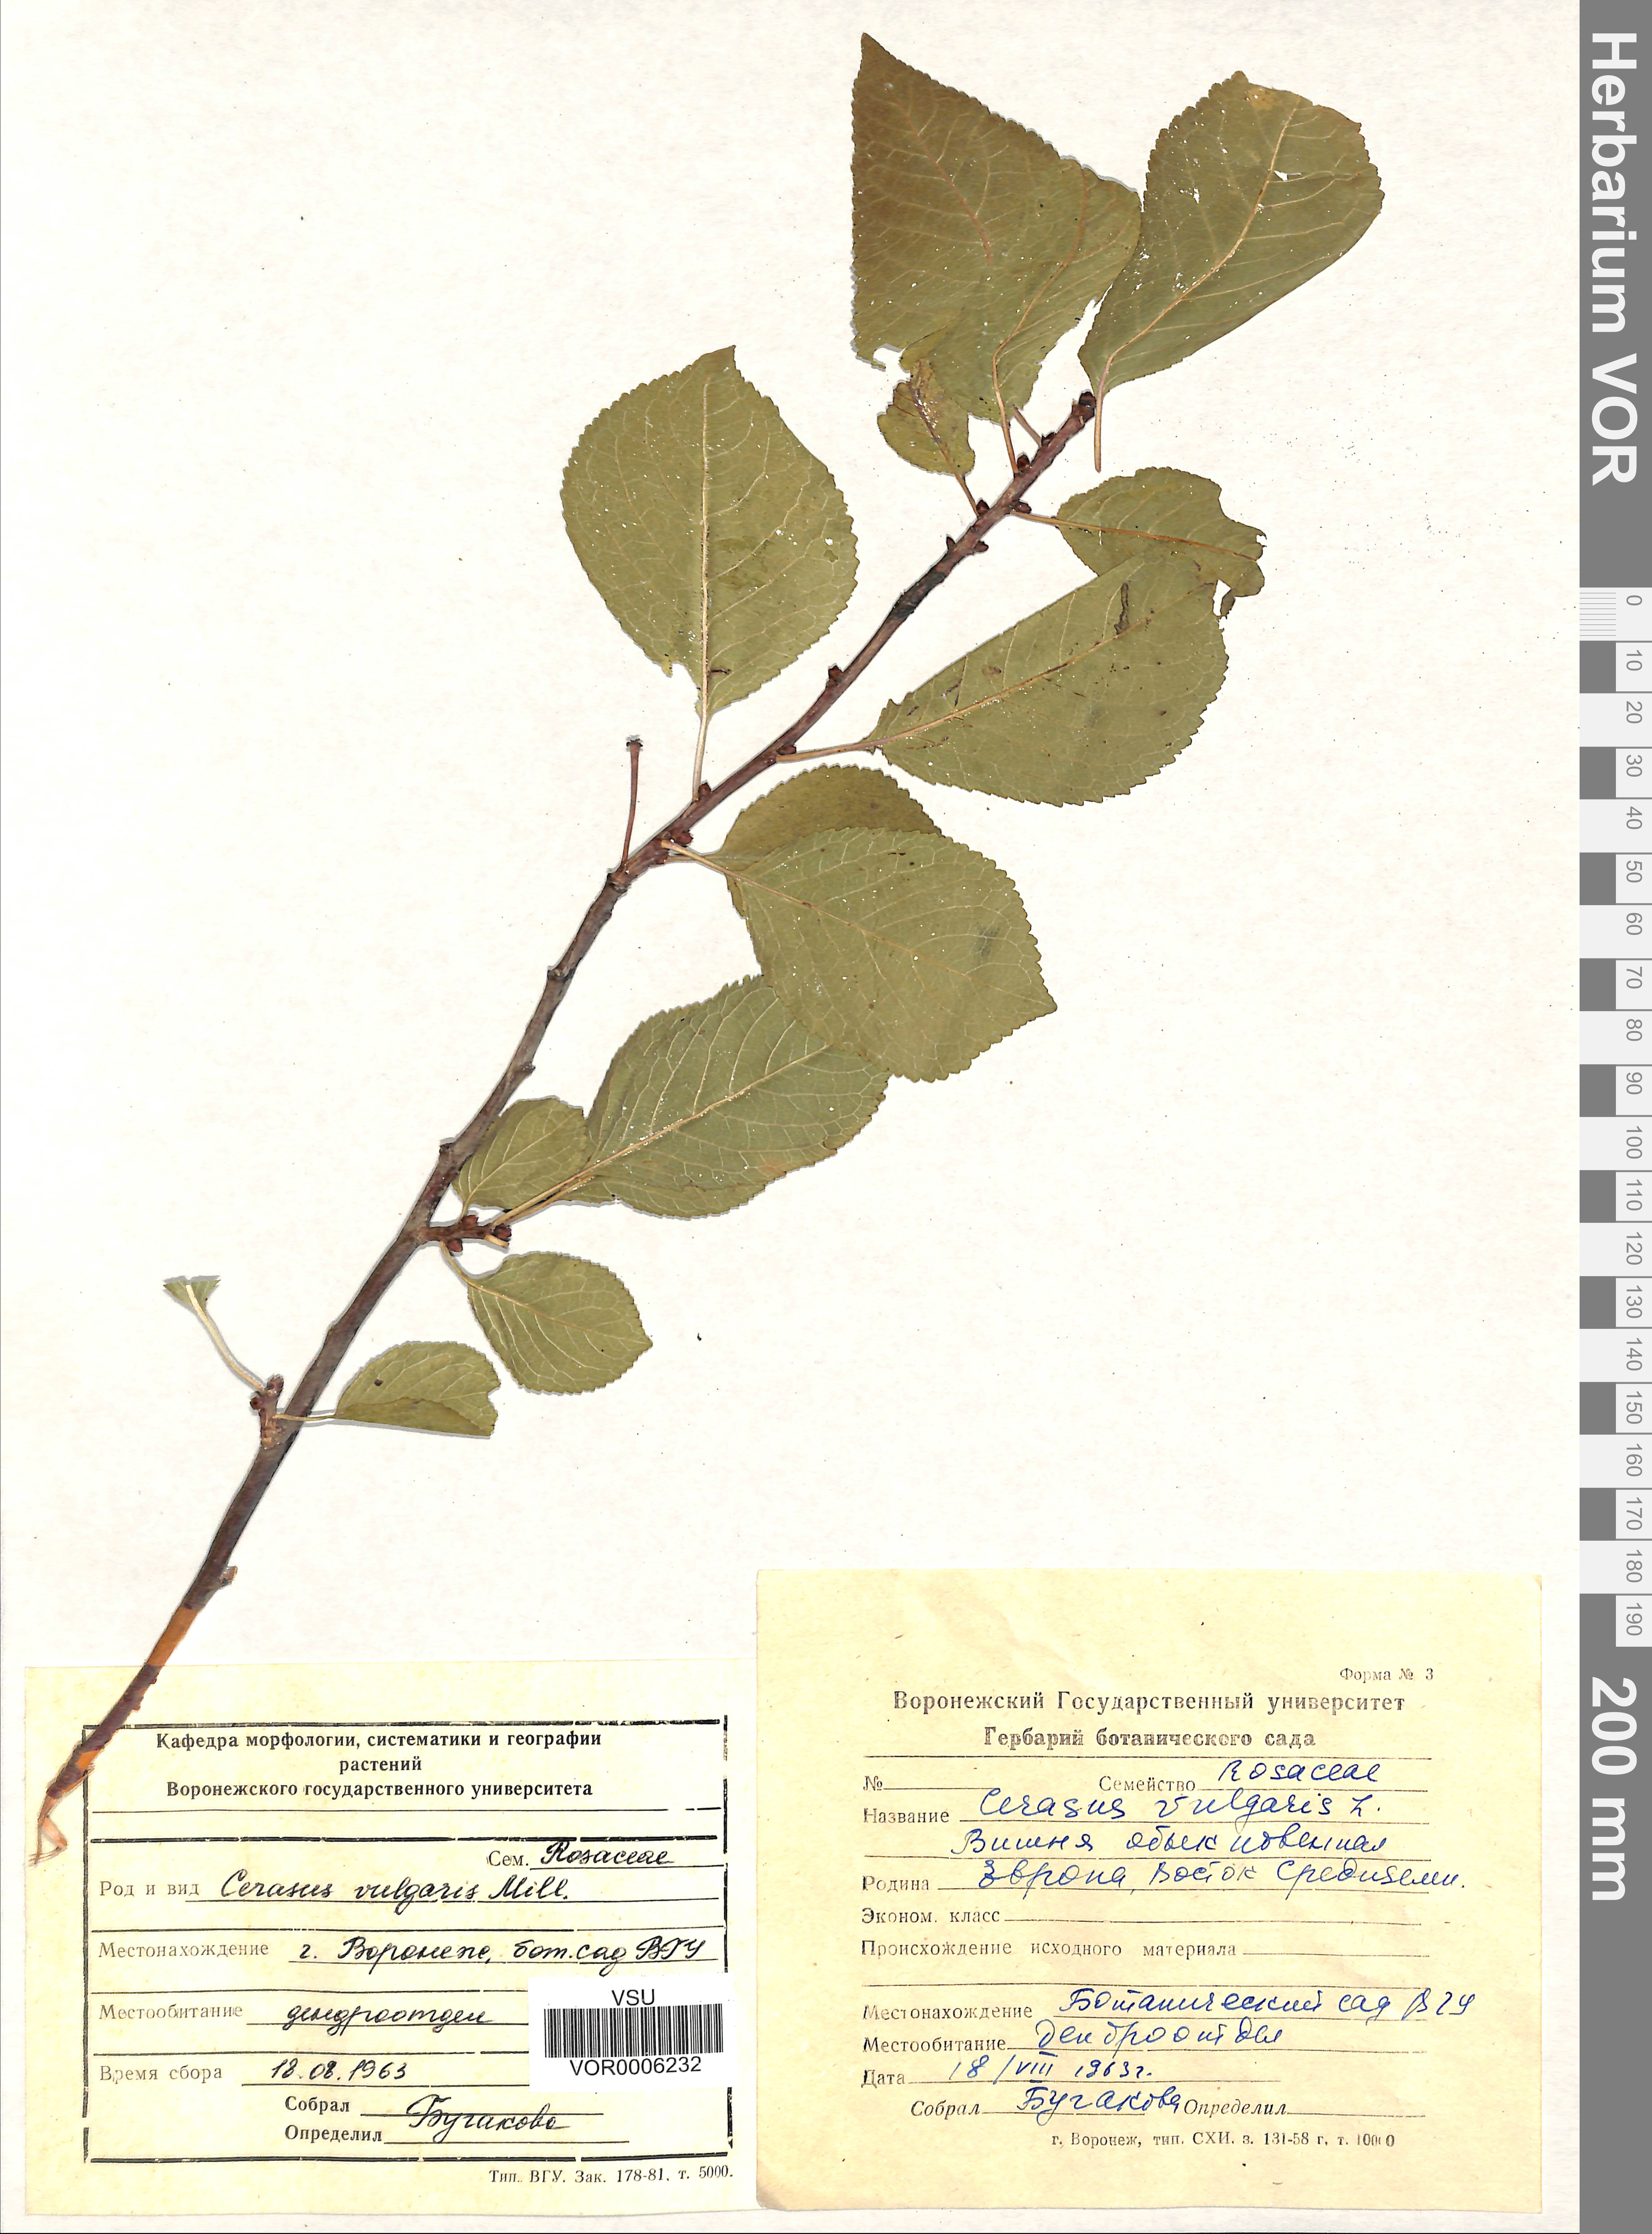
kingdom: Plantae
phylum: Tracheophyta
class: Magnoliopsida
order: Rosales
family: Rosaceae
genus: Prunus
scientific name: Prunus cerasus
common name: Morello cherry
